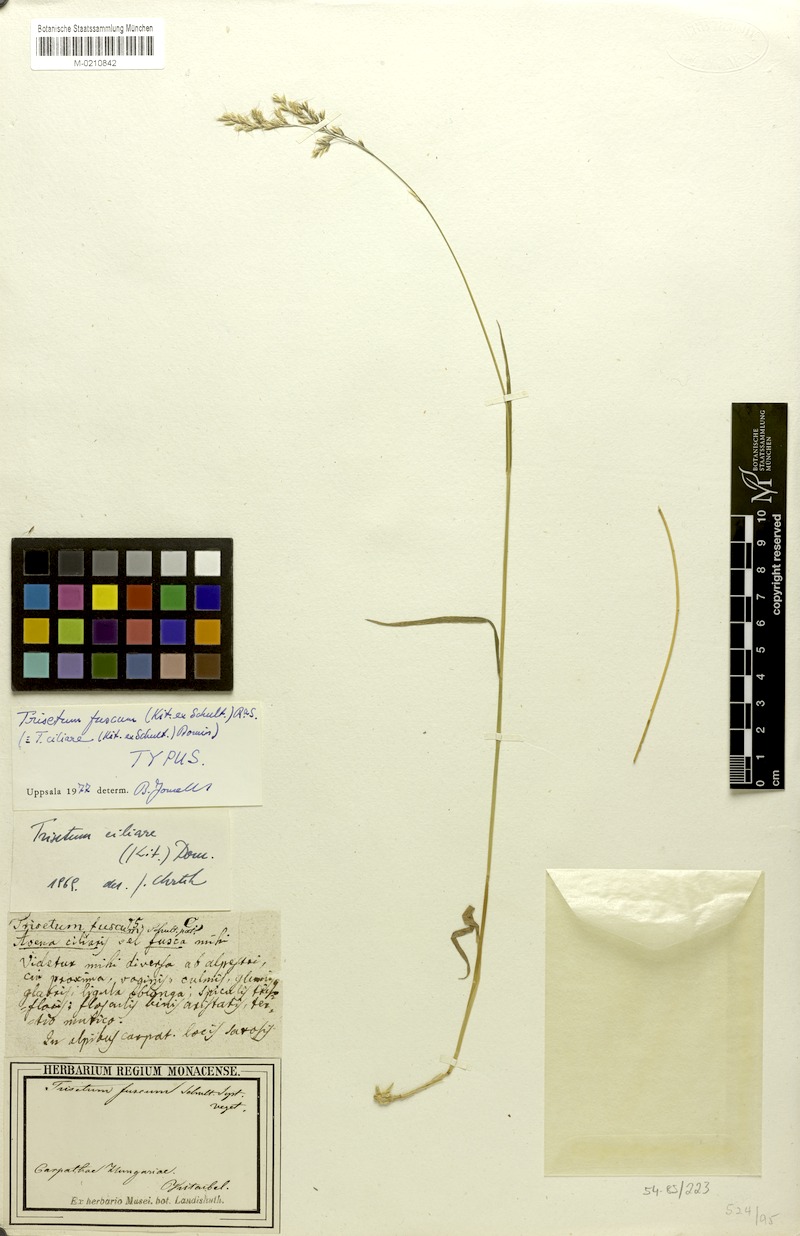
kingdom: Plantae
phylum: Tracheophyta
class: Liliopsida
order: Poales
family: Poaceae
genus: Trisetum
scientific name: Trisetum fuscum
